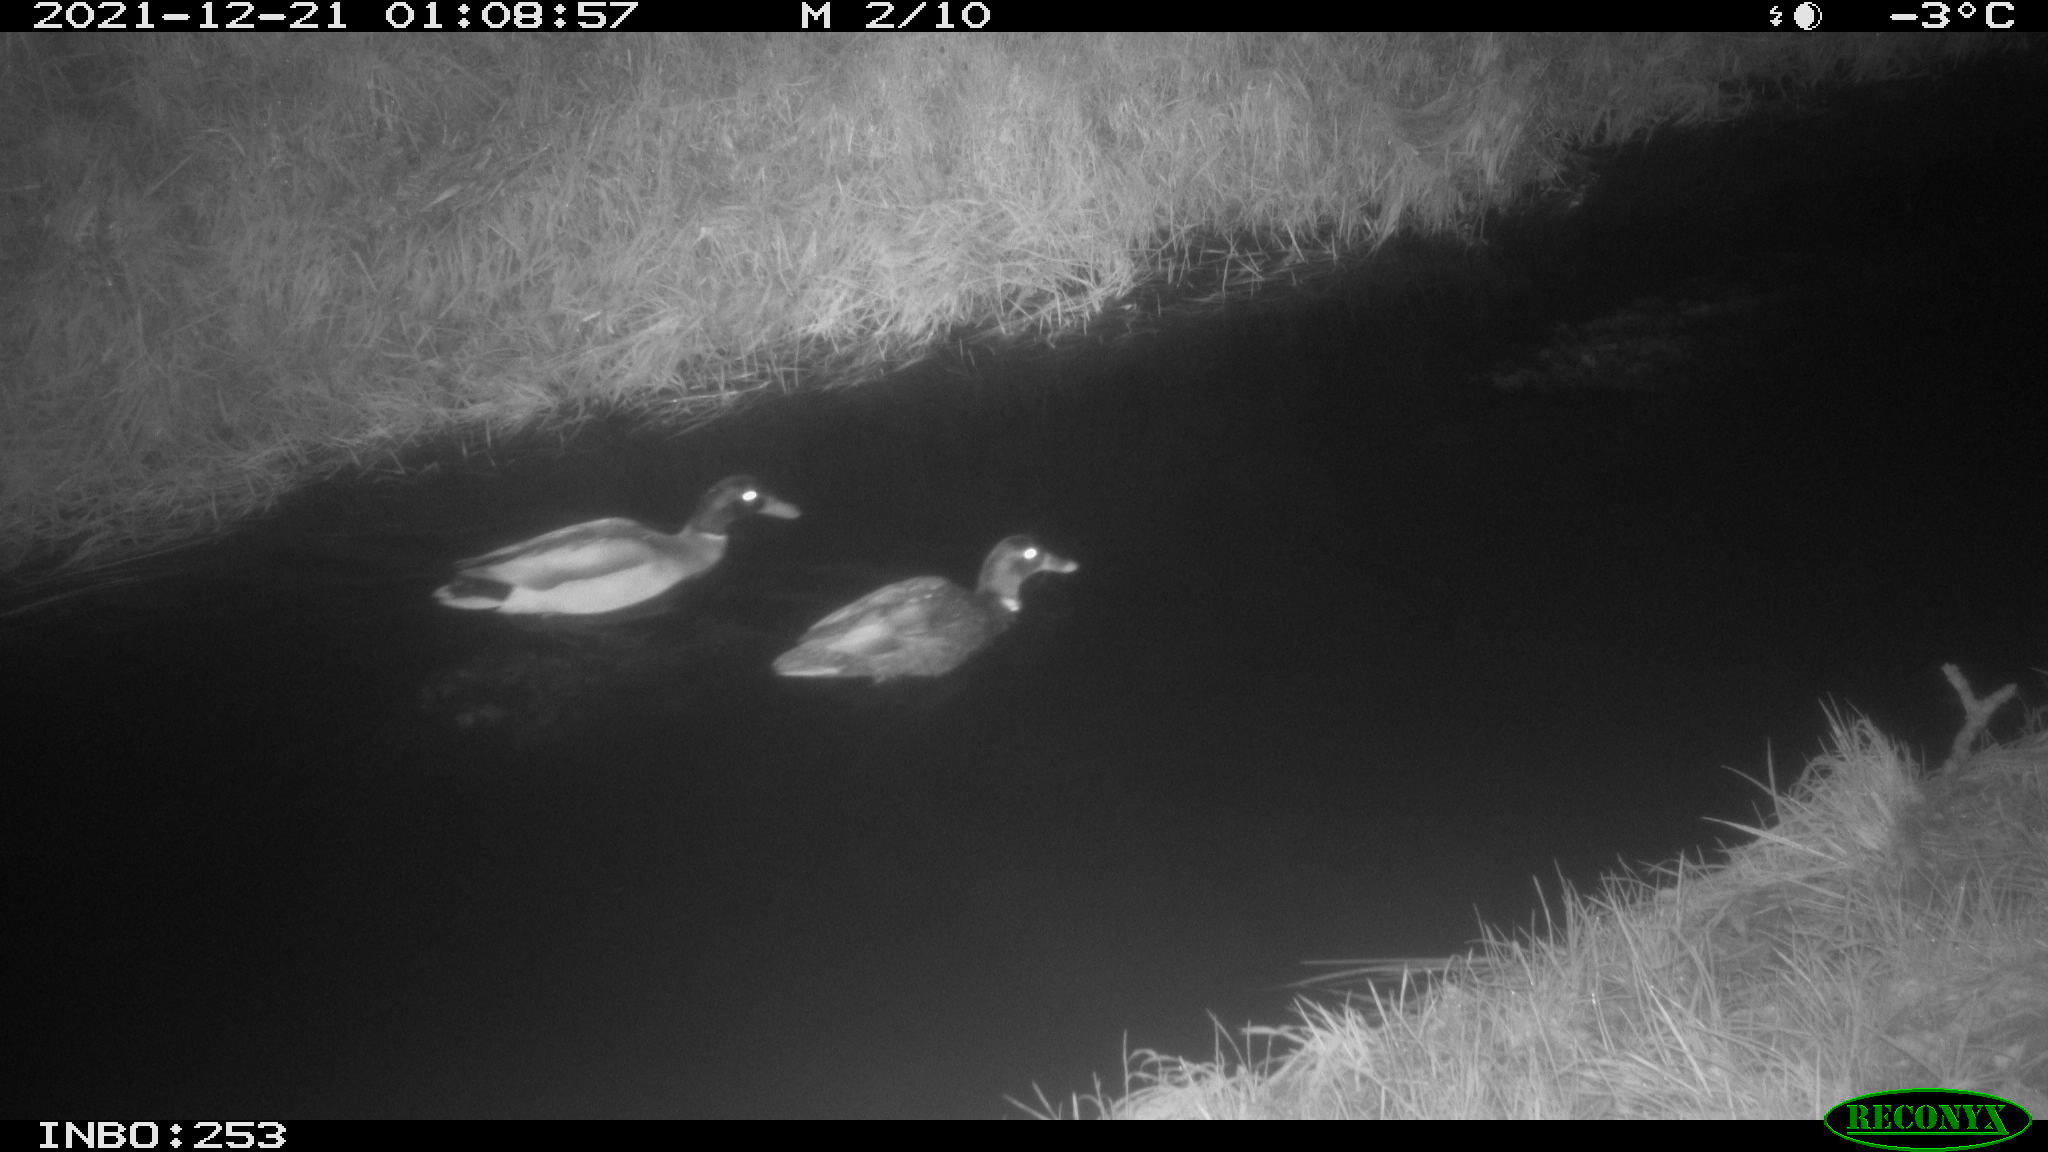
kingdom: Animalia
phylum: Chordata
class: Aves
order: Anseriformes
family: Anatidae
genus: Anas
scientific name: Anas
